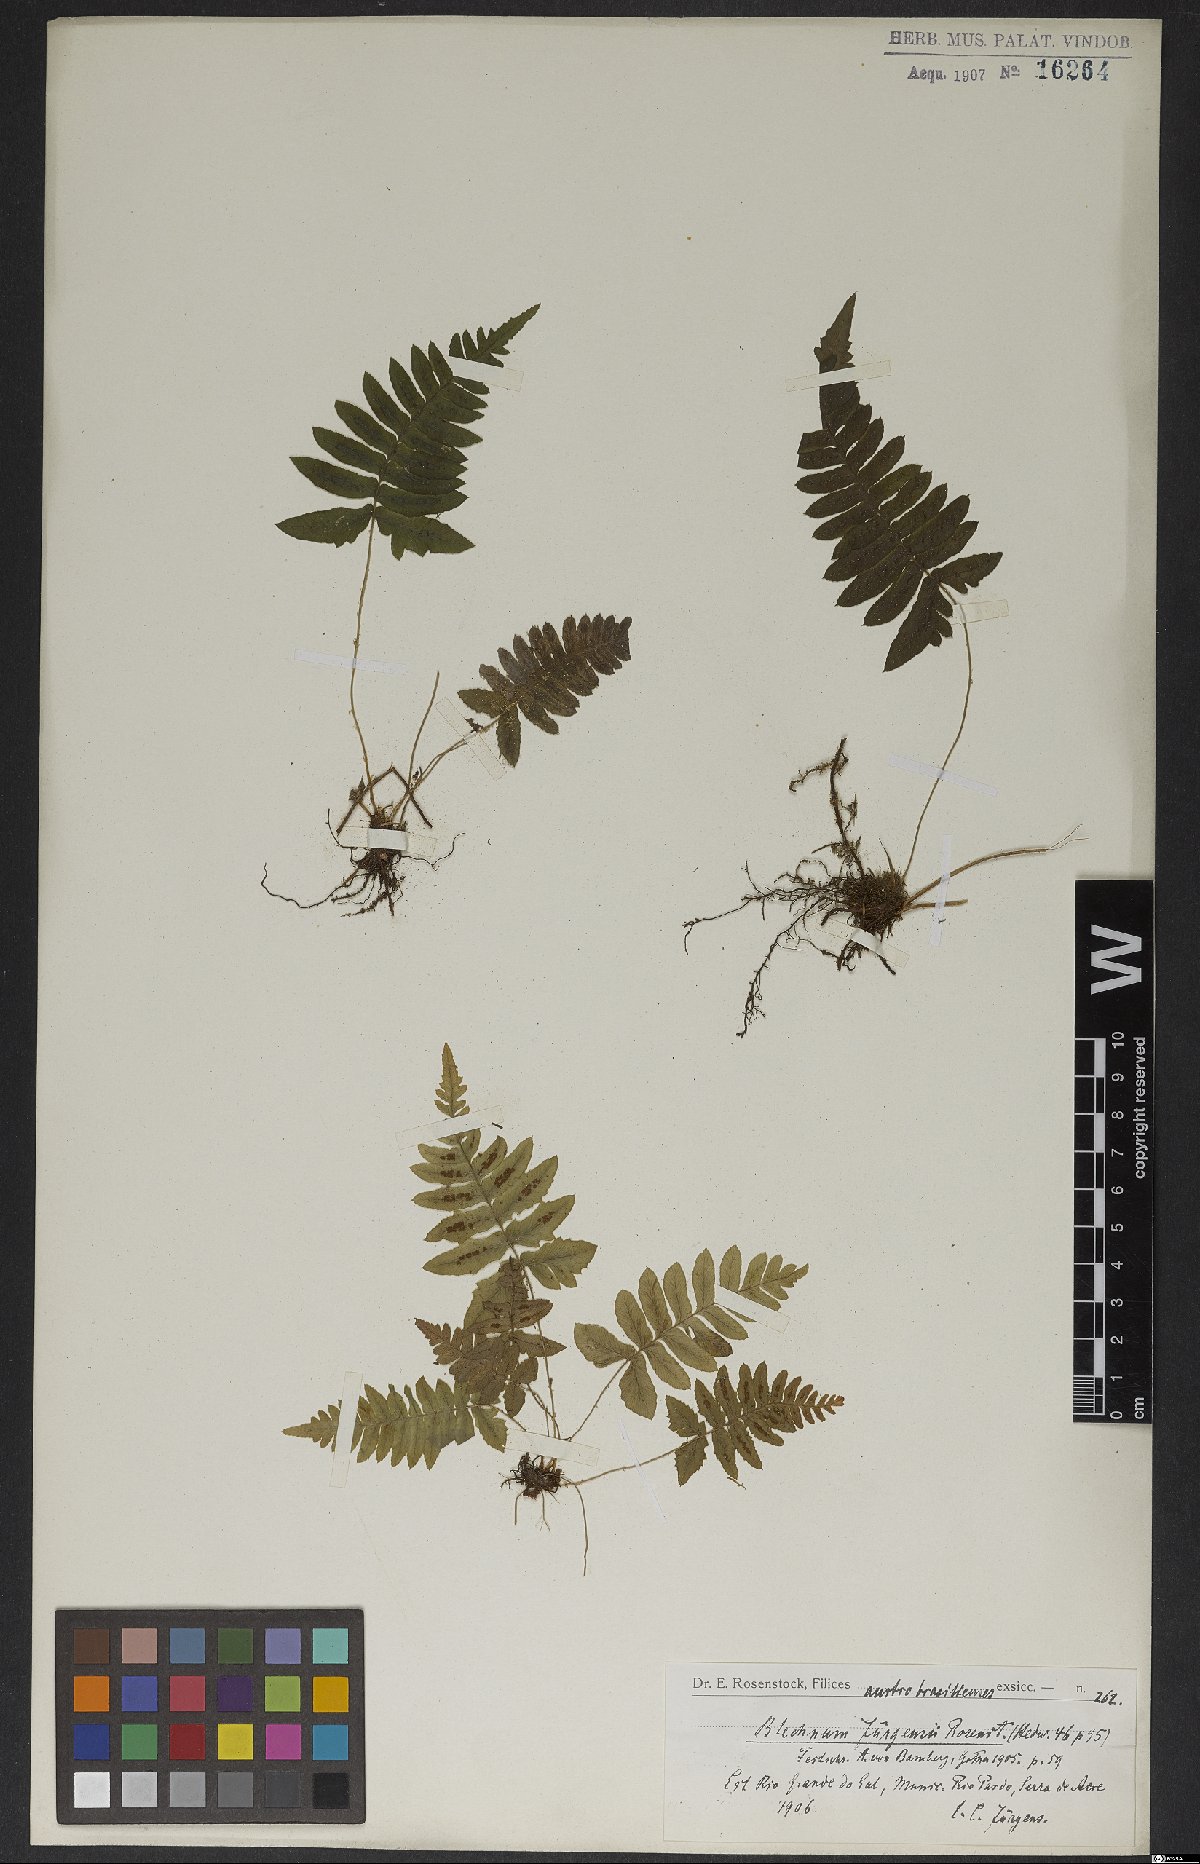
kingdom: Plantae
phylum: Tracheophyta
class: Polypodiopsida
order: Polypodiales
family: Blechnaceae
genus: Blechnum
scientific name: Blechnum laevigatum
